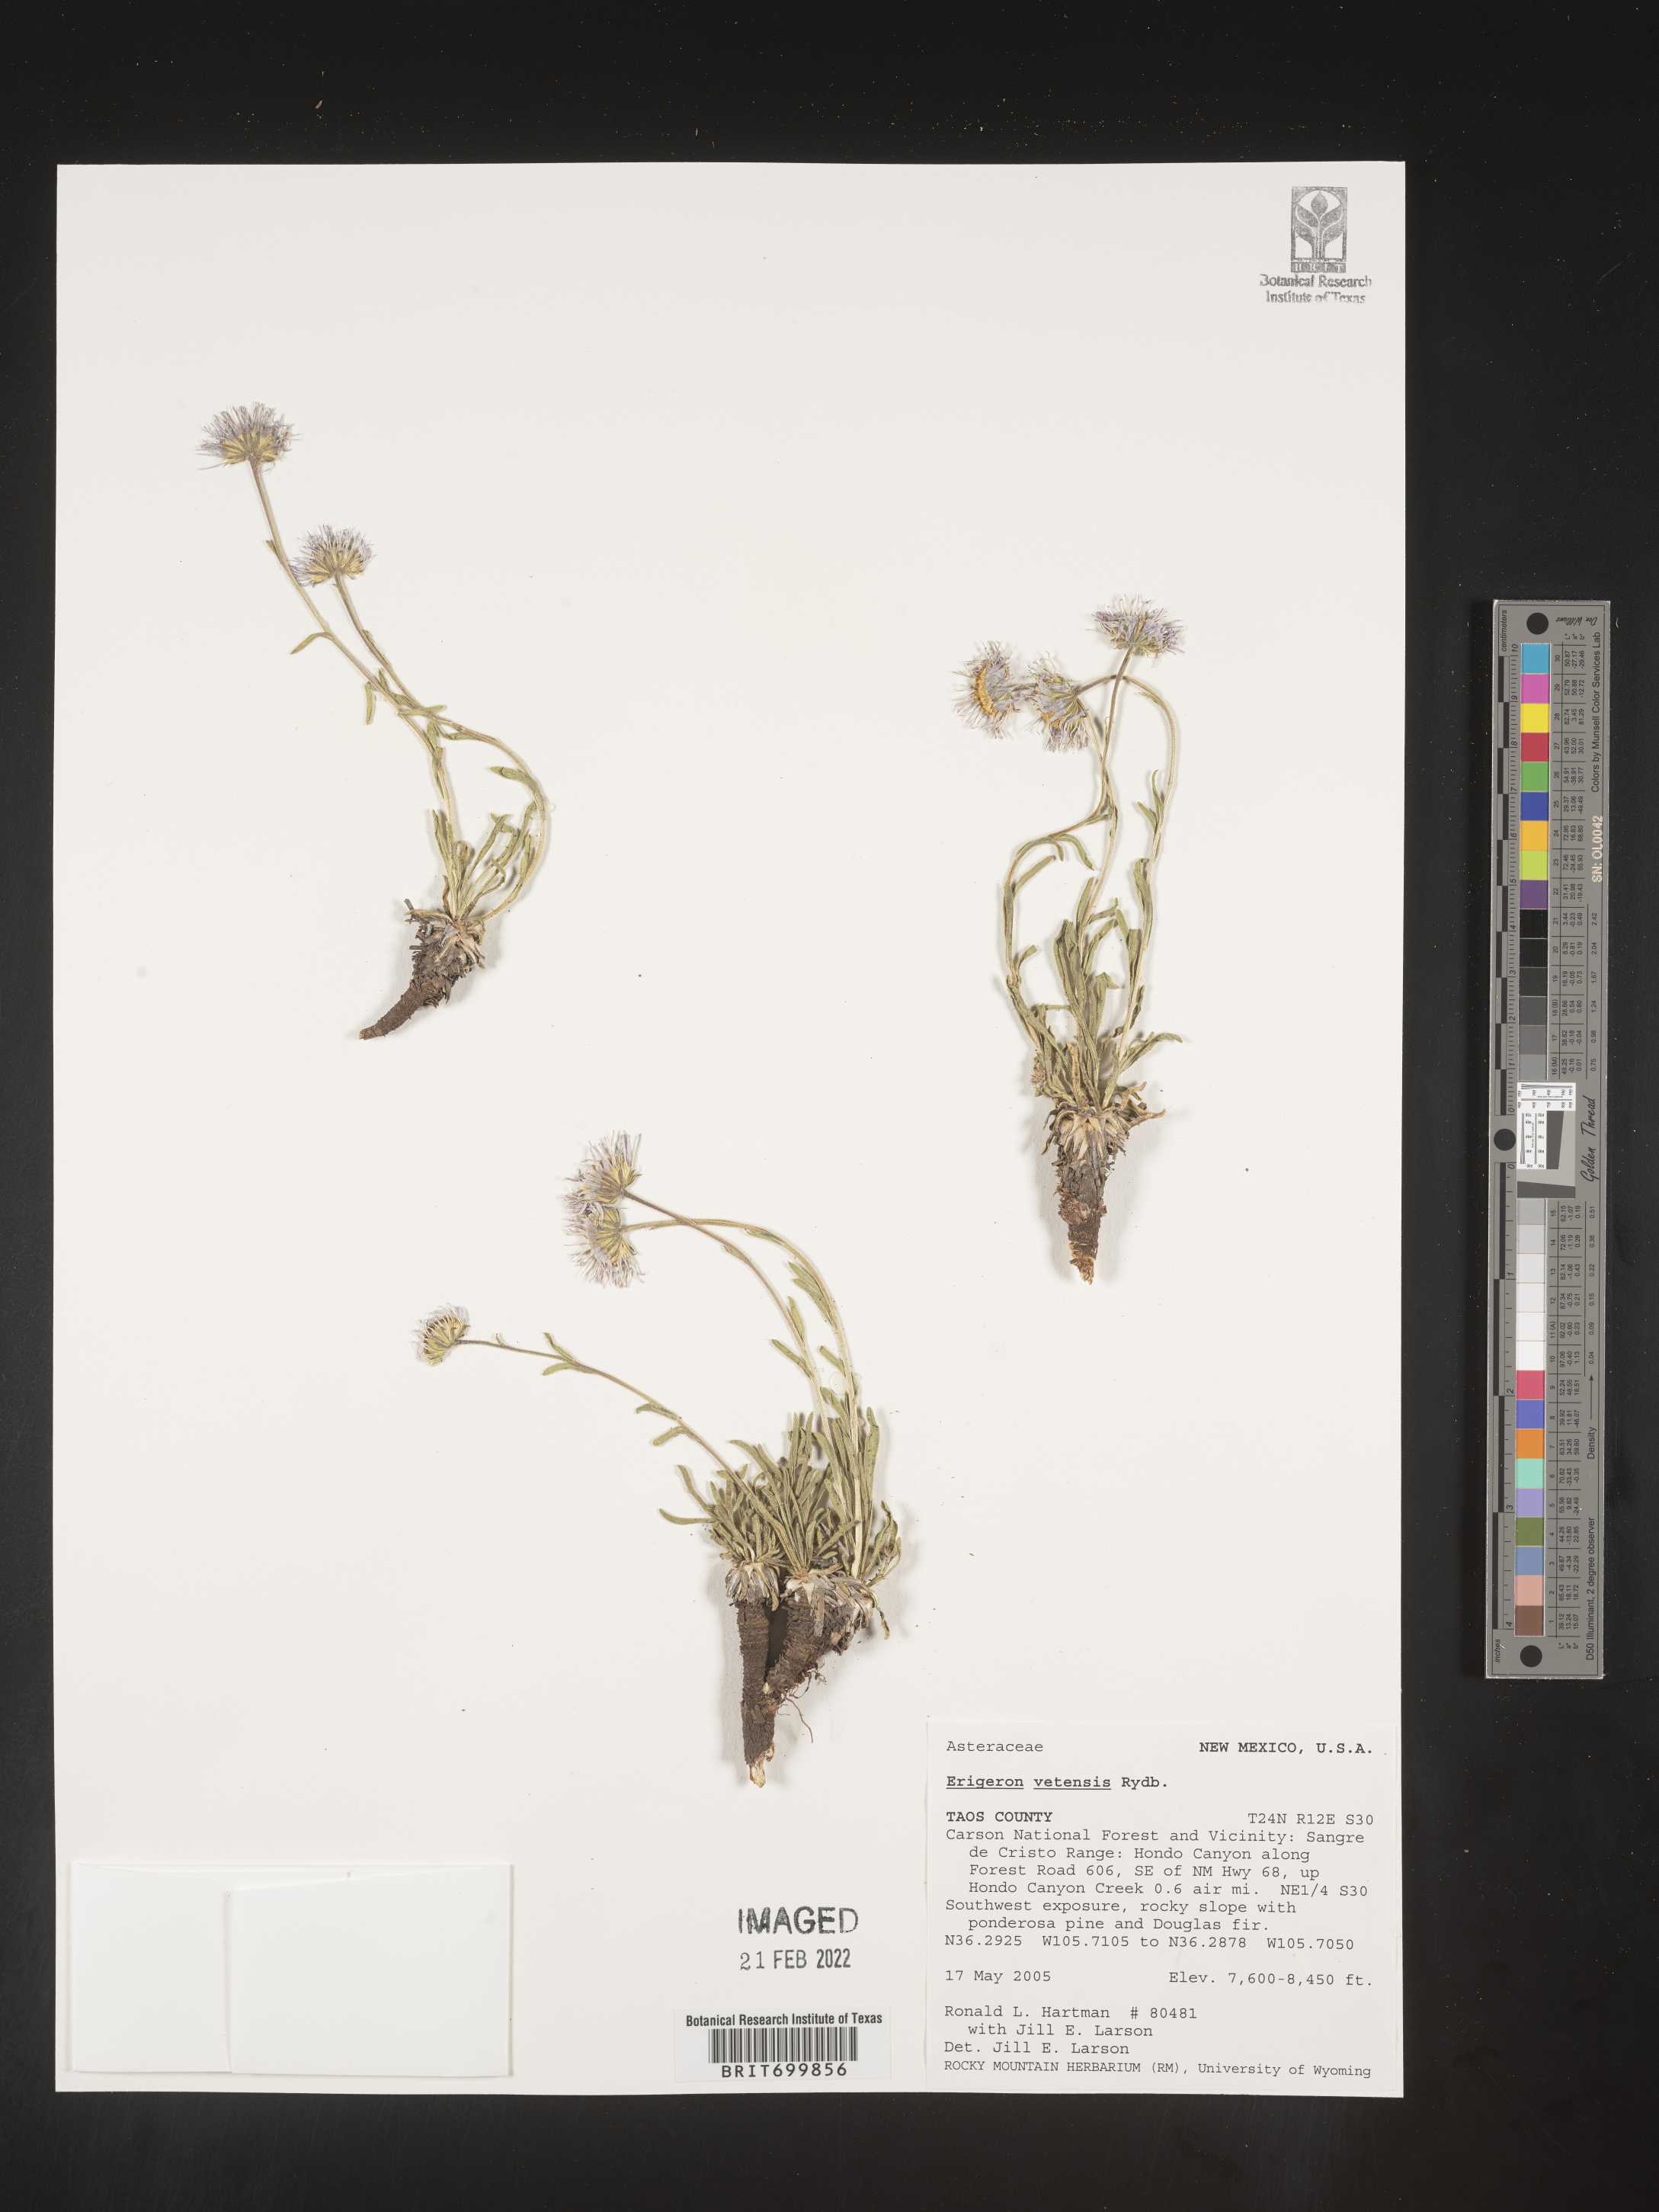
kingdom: Plantae
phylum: Tracheophyta
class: Magnoliopsida
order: Asterales
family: Asteraceae
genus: Erigeron
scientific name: Erigeron vetensis
